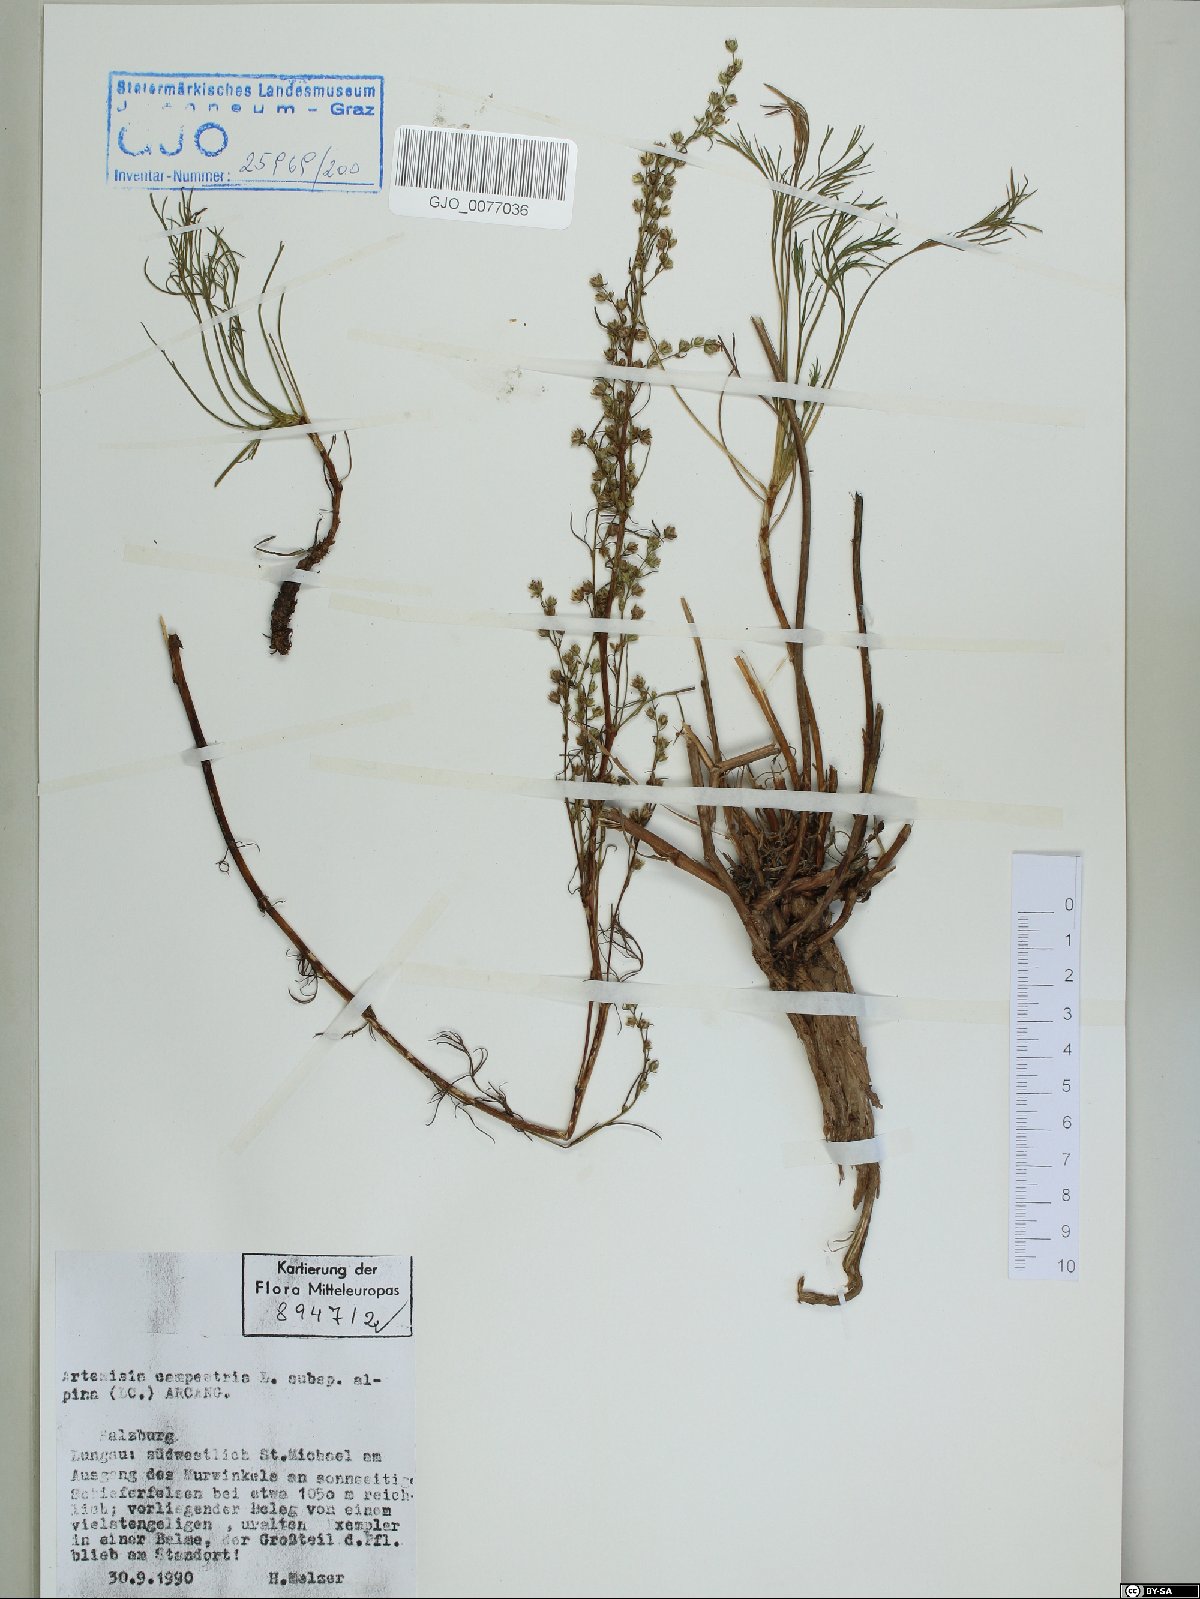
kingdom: Plantae
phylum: Tracheophyta
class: Magnoliopsida
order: Asterales
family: Asteraceae
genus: Artemisia
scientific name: Artemisia campestris
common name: Field wormwood
